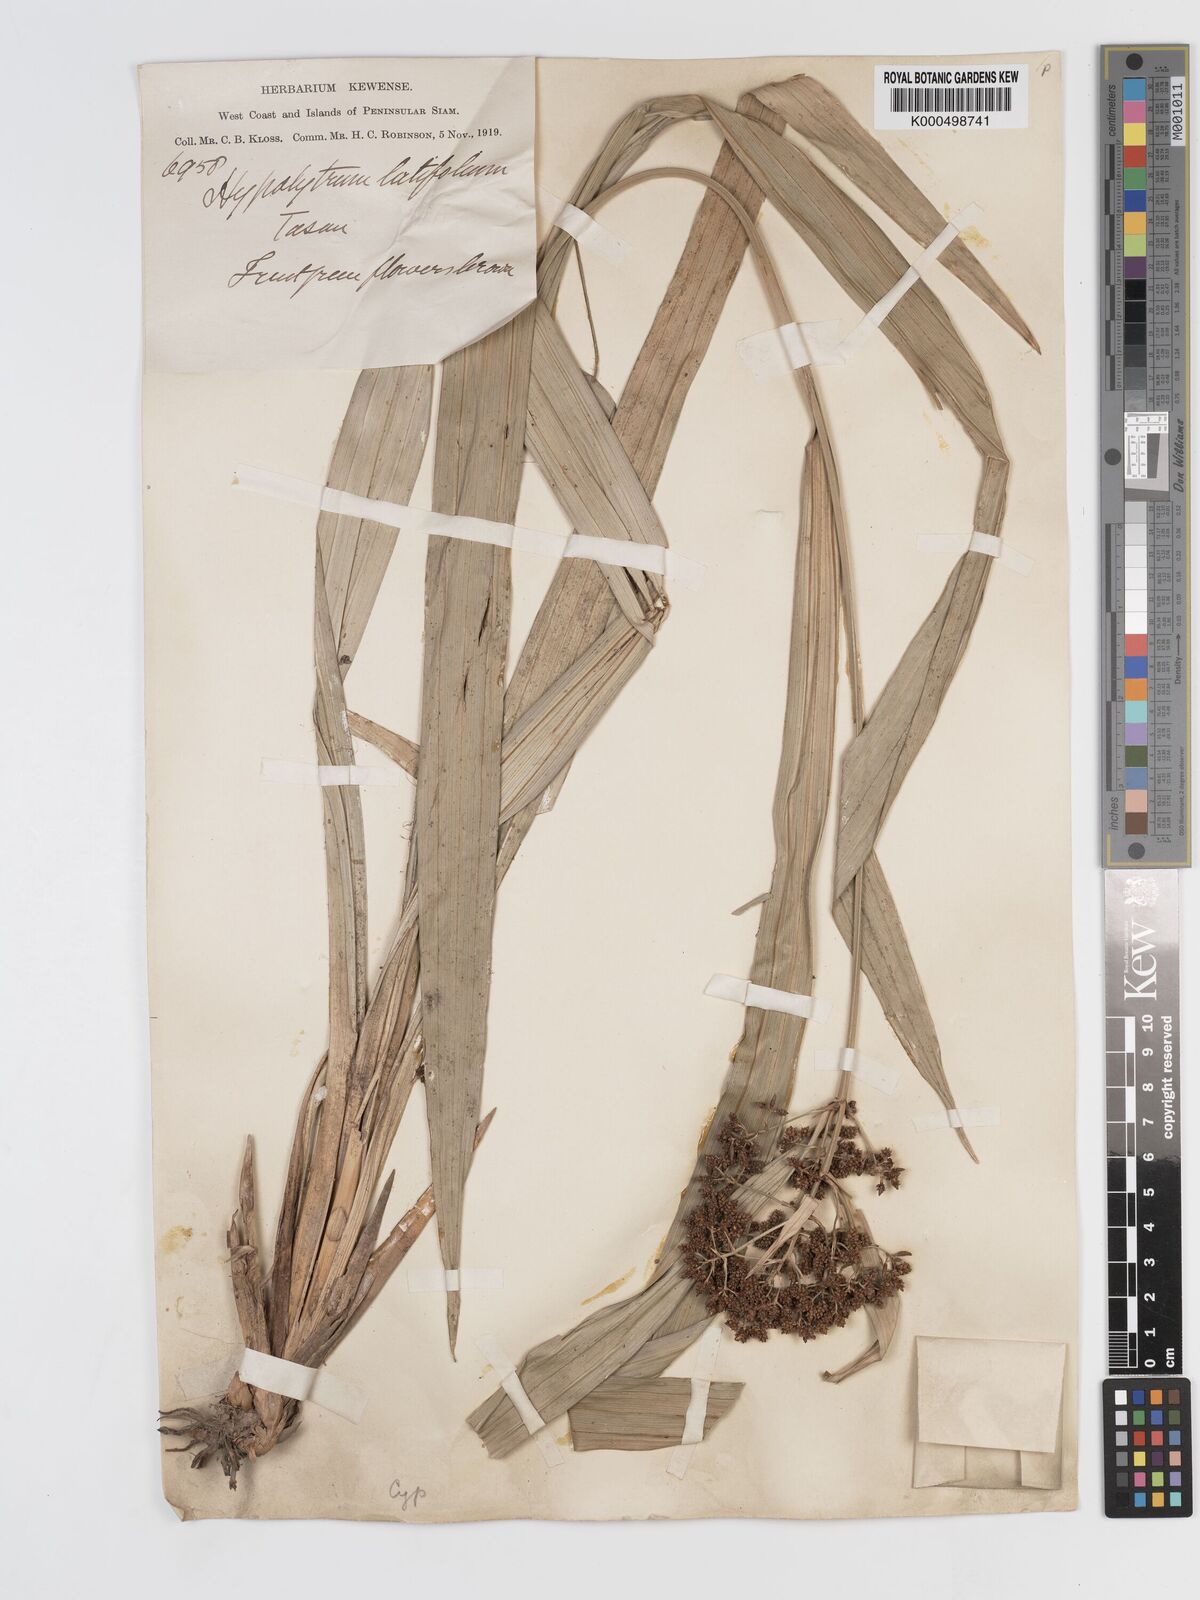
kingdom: Plantae
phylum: Tracheophyta
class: Liliopsida
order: Poales
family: Cyperaceae
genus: Hypolytrum
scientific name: Hypolytrum nemorum
